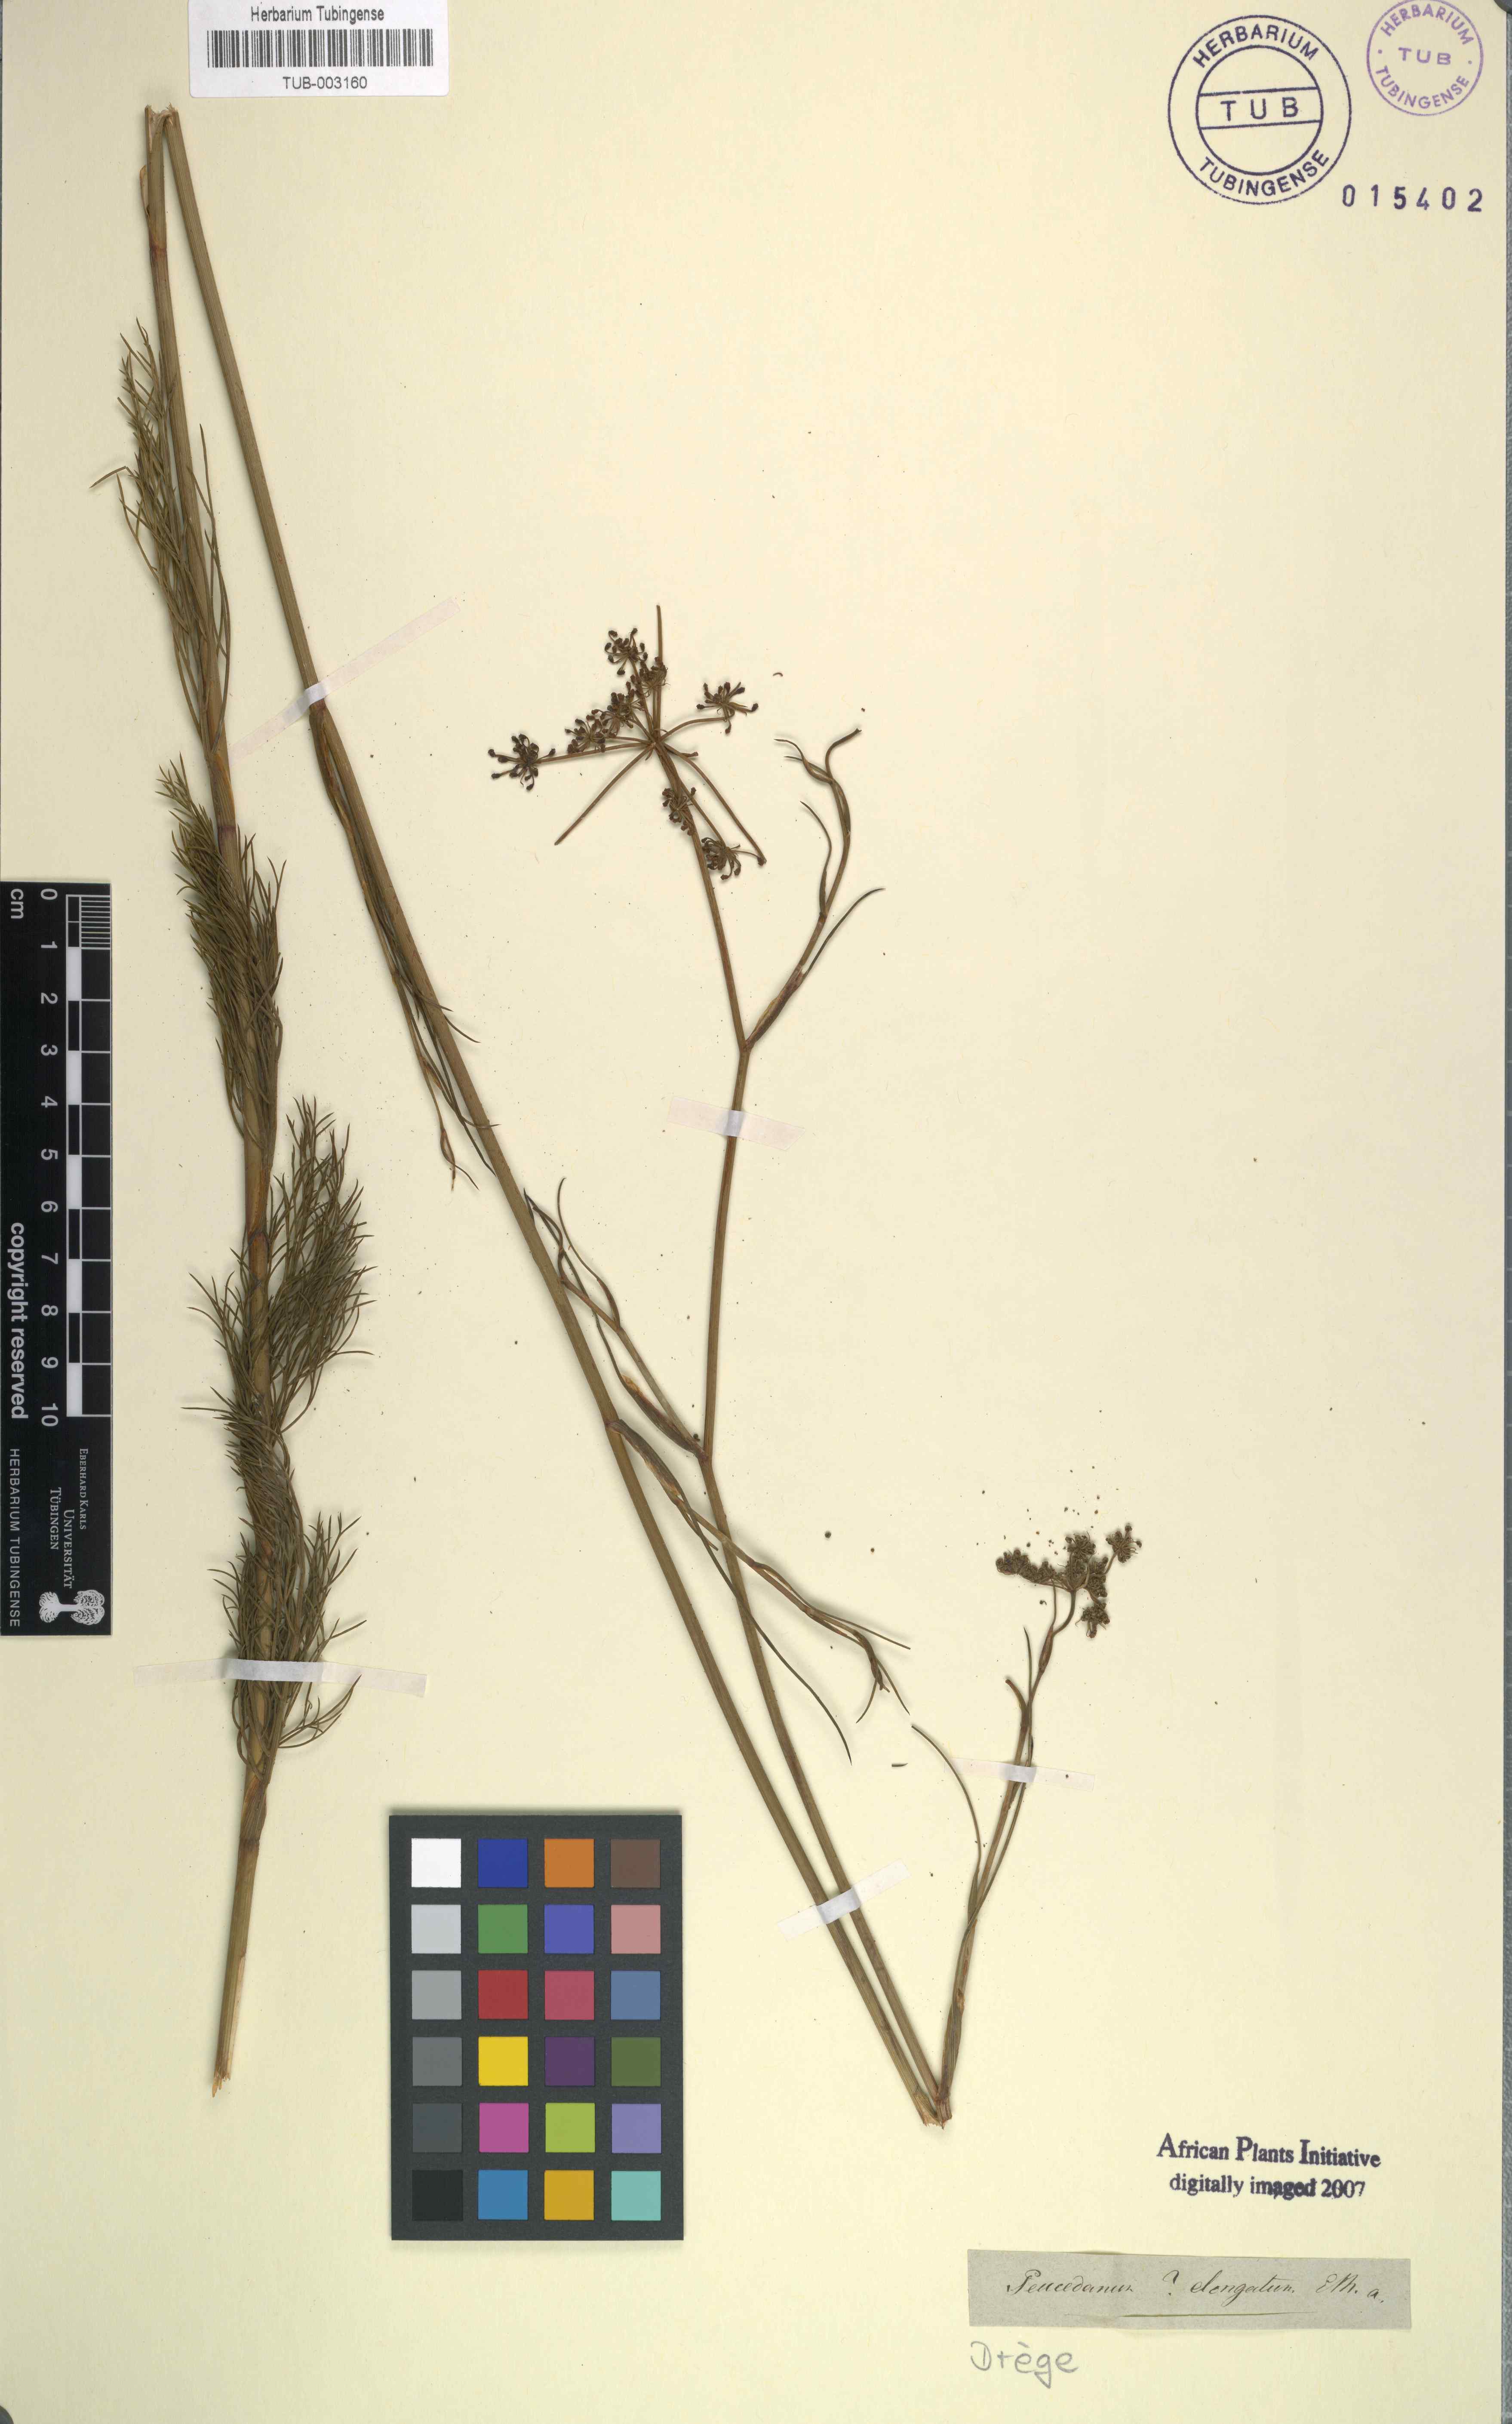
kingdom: Plantae
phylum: Tracheophyta
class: Magnoliopsida
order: Apiales
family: Apiaceae
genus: Notobubon
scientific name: Notobubon ferulaceum
